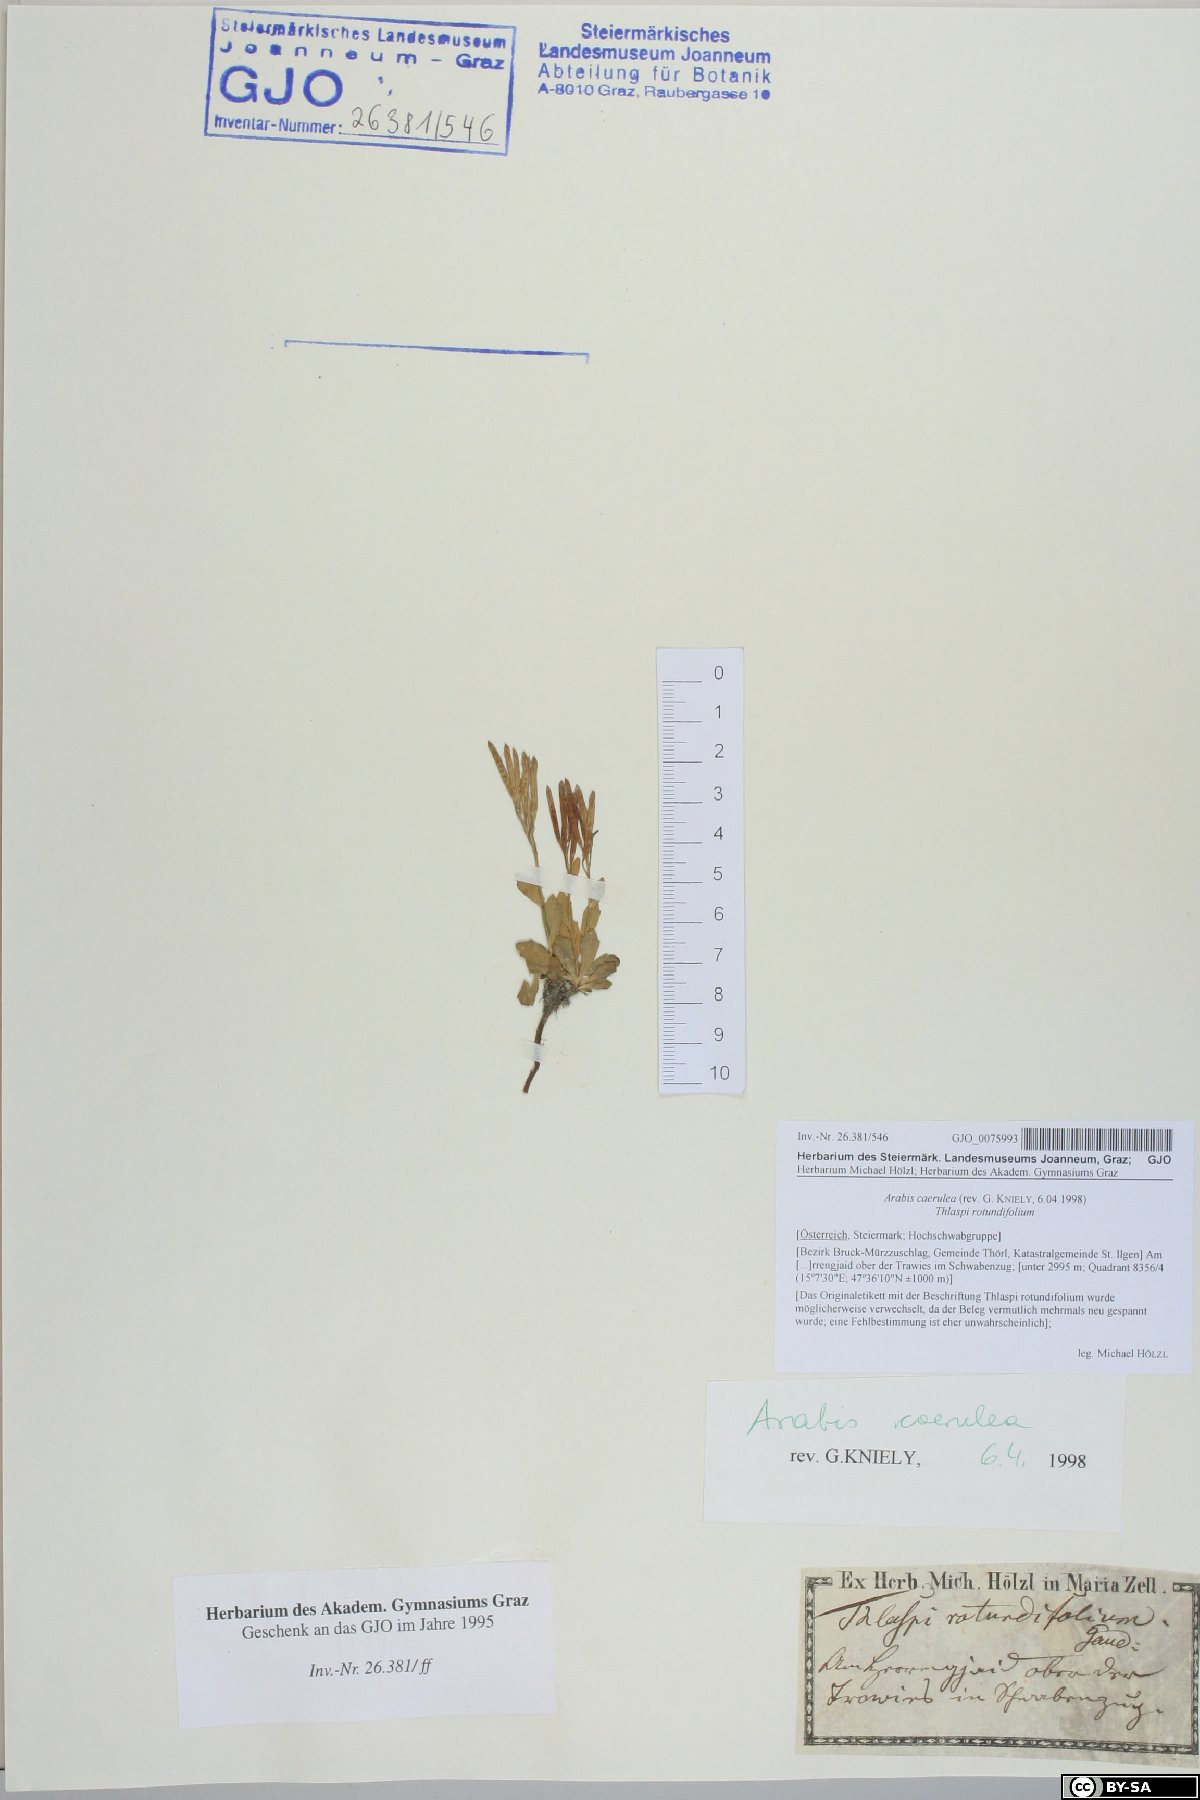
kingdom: Plantae
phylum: Tracheophyta
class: Magnoliopsida
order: Brassicales
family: Brassicaceae
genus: Arabis
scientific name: Arabis caerulea
